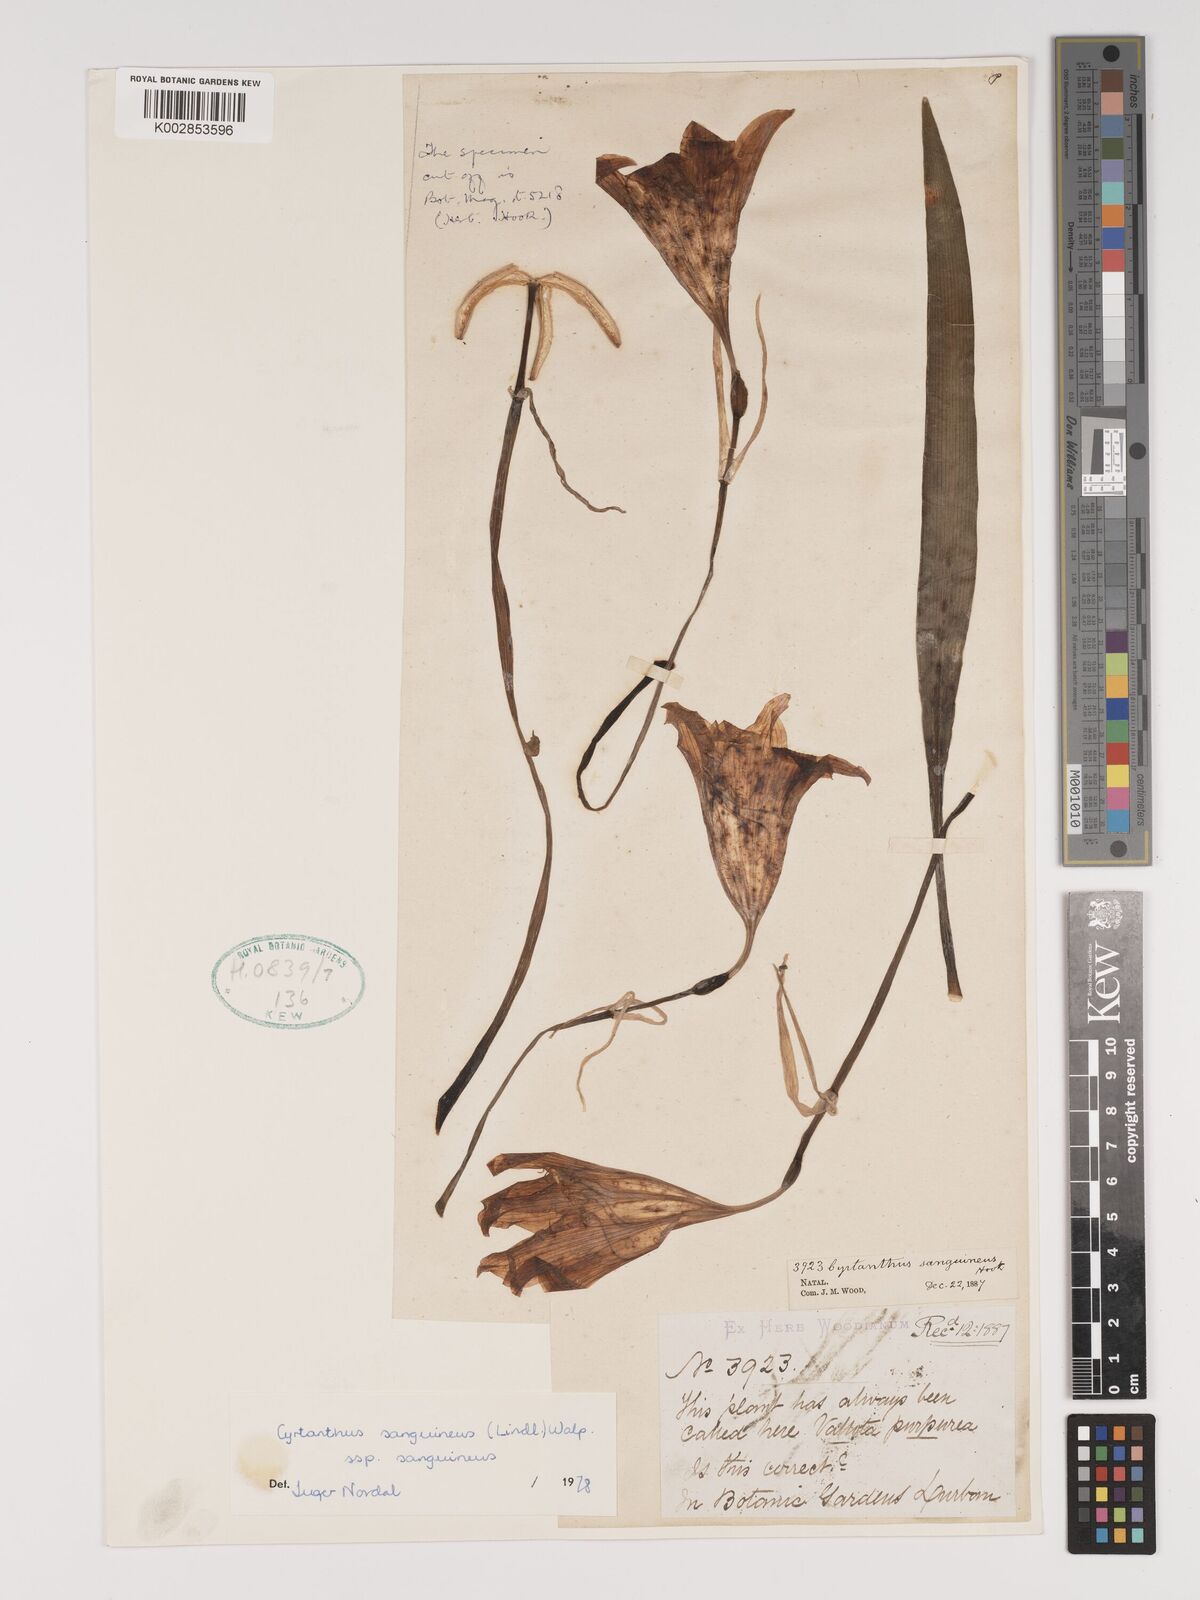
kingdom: Plantae
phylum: Tracheophyta
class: Liliopsida
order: Asparagales
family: Amaryllidaceae
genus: Cyrtanthus
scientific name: Cyrtanthus sanguineus
